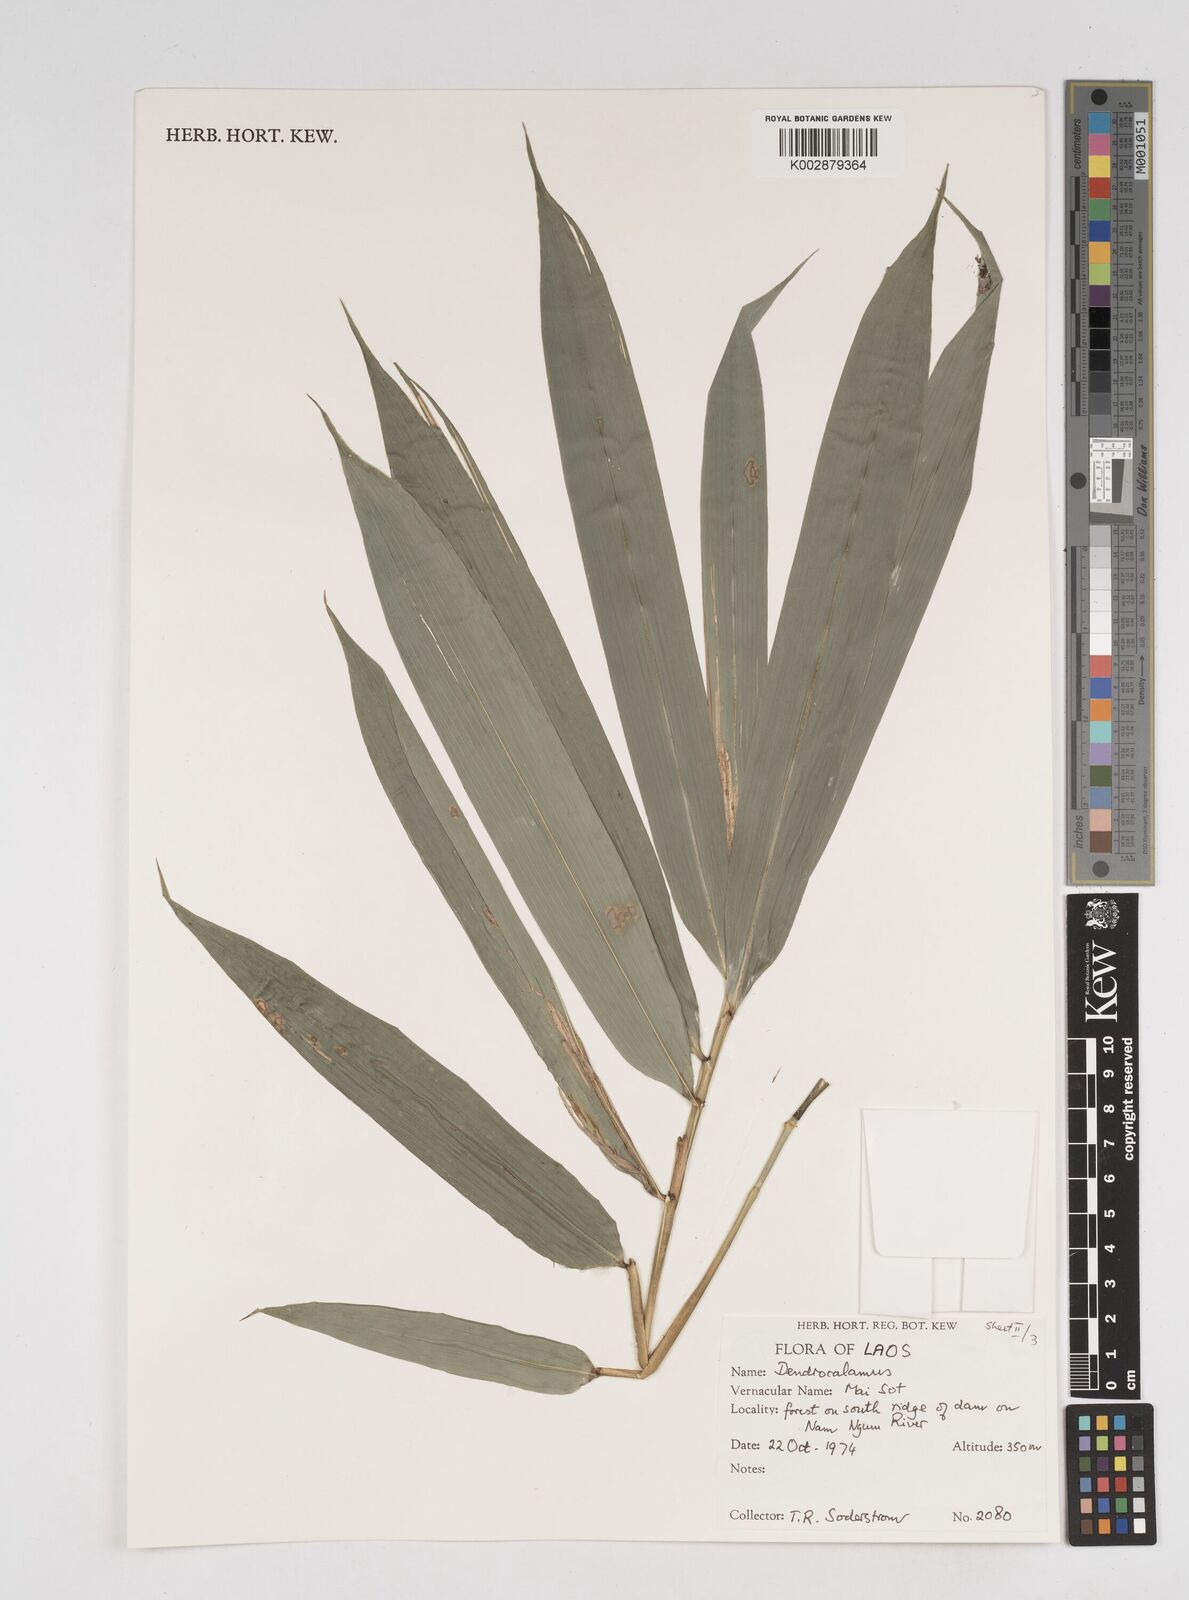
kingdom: Plantae
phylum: Tracheophyta
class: Liliopsida
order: Poales
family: Poaceae
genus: Dendrocalamus
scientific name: Dendrocalamus
